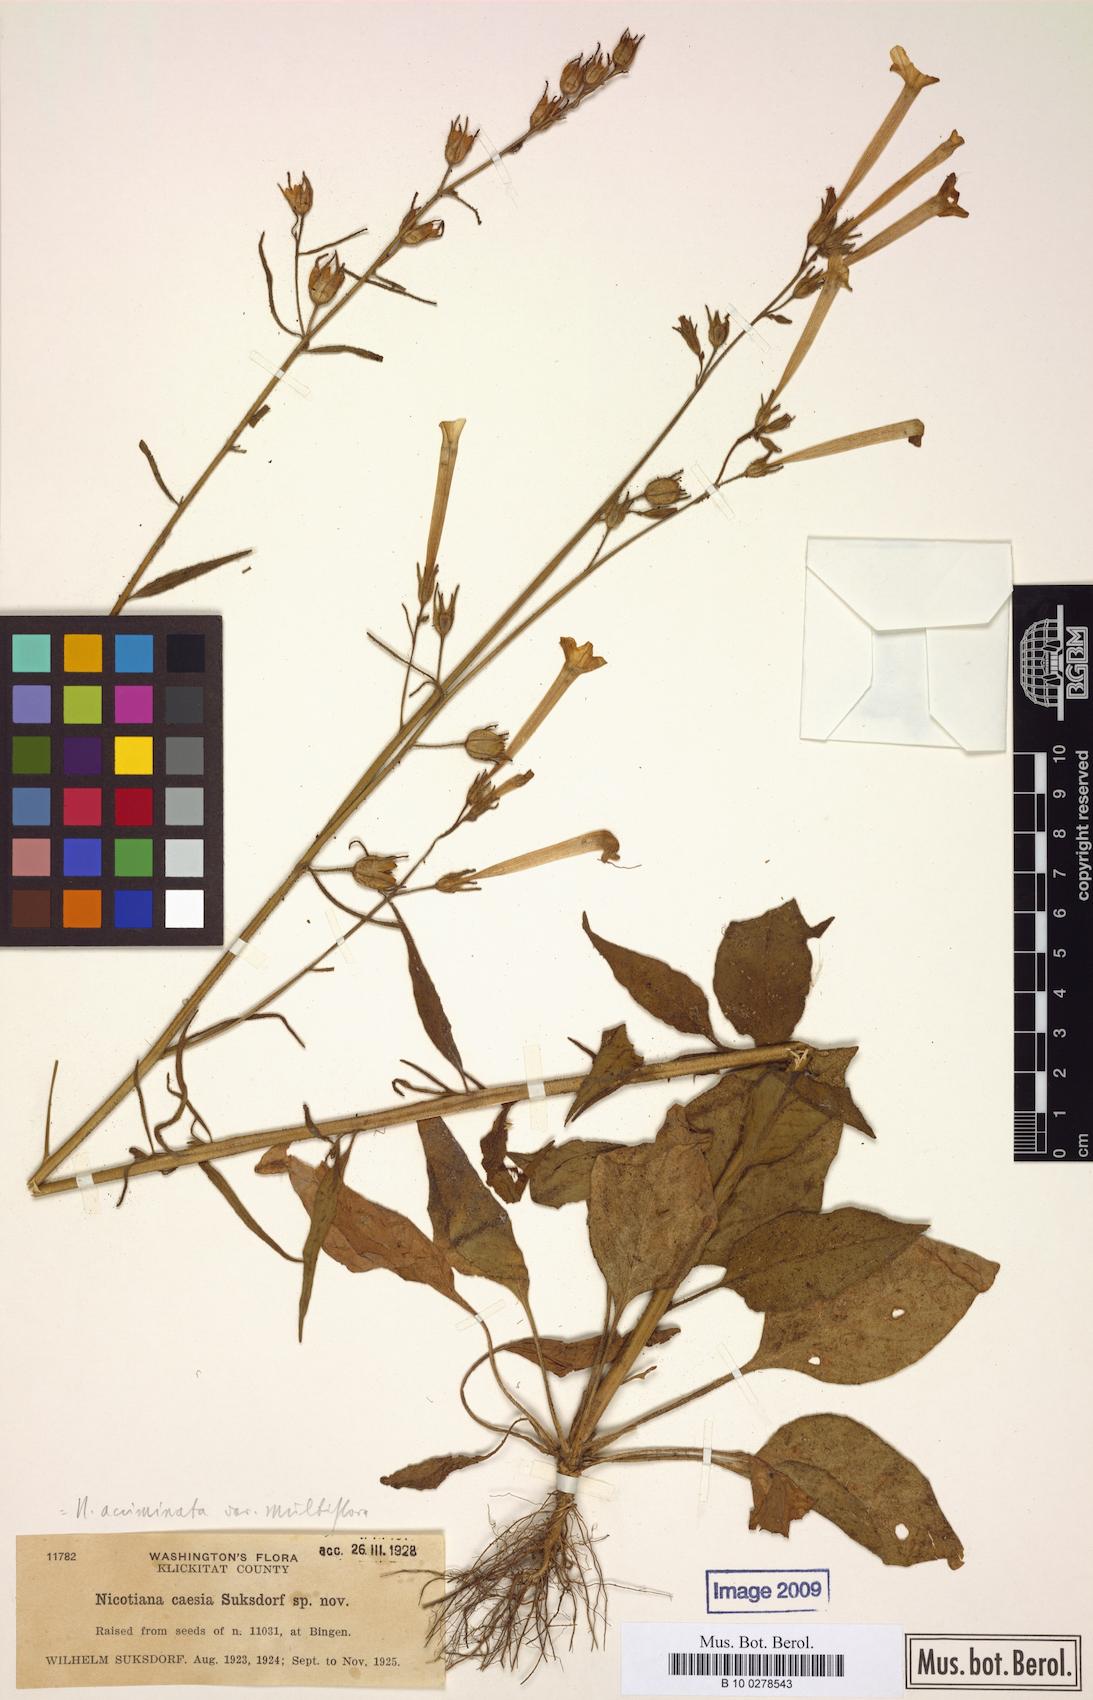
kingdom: Plantae
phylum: Tracheophyta
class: Magnoliopsida
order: Solanales
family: Solanaceae
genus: Nicotiana
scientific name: Nicotiana acuminata
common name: Manyflower tobacco
